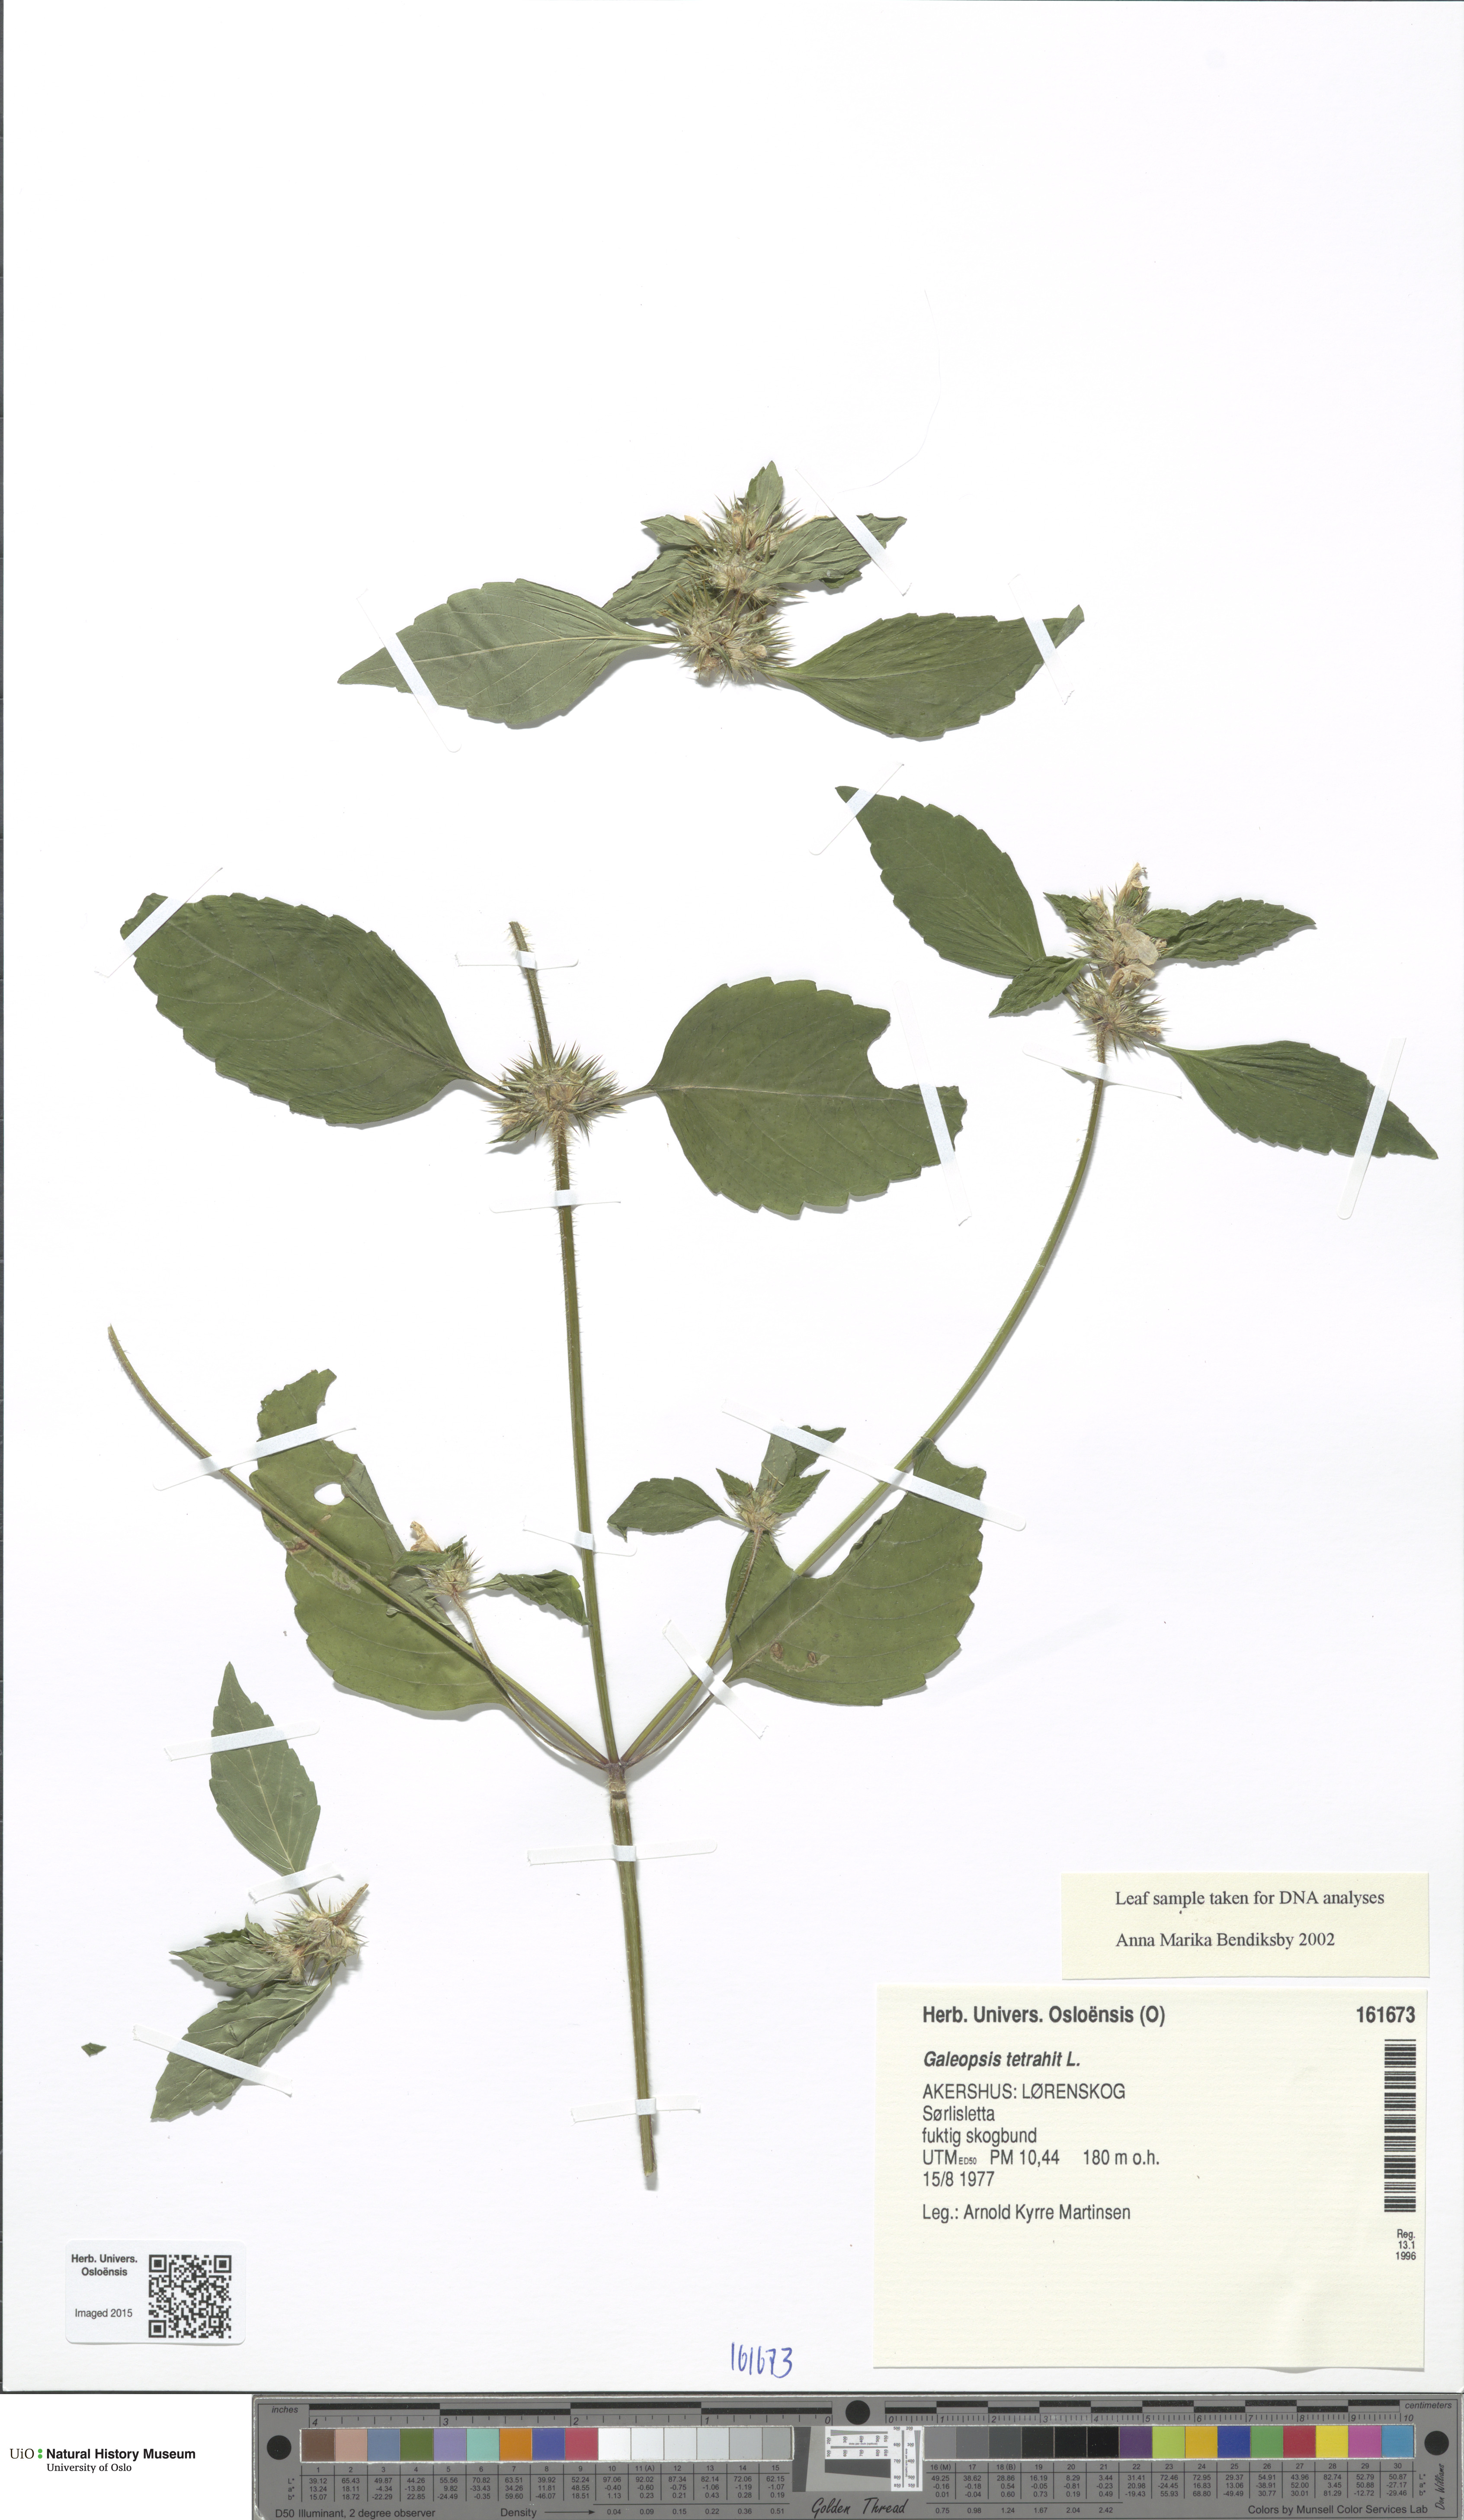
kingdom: Plantae
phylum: Tracheophyta
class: Magnoliopsida
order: Lamiales
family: Lamiaceae
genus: Galeopsis
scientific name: Galeopsis tetrahit
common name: Common hemp-nettle
